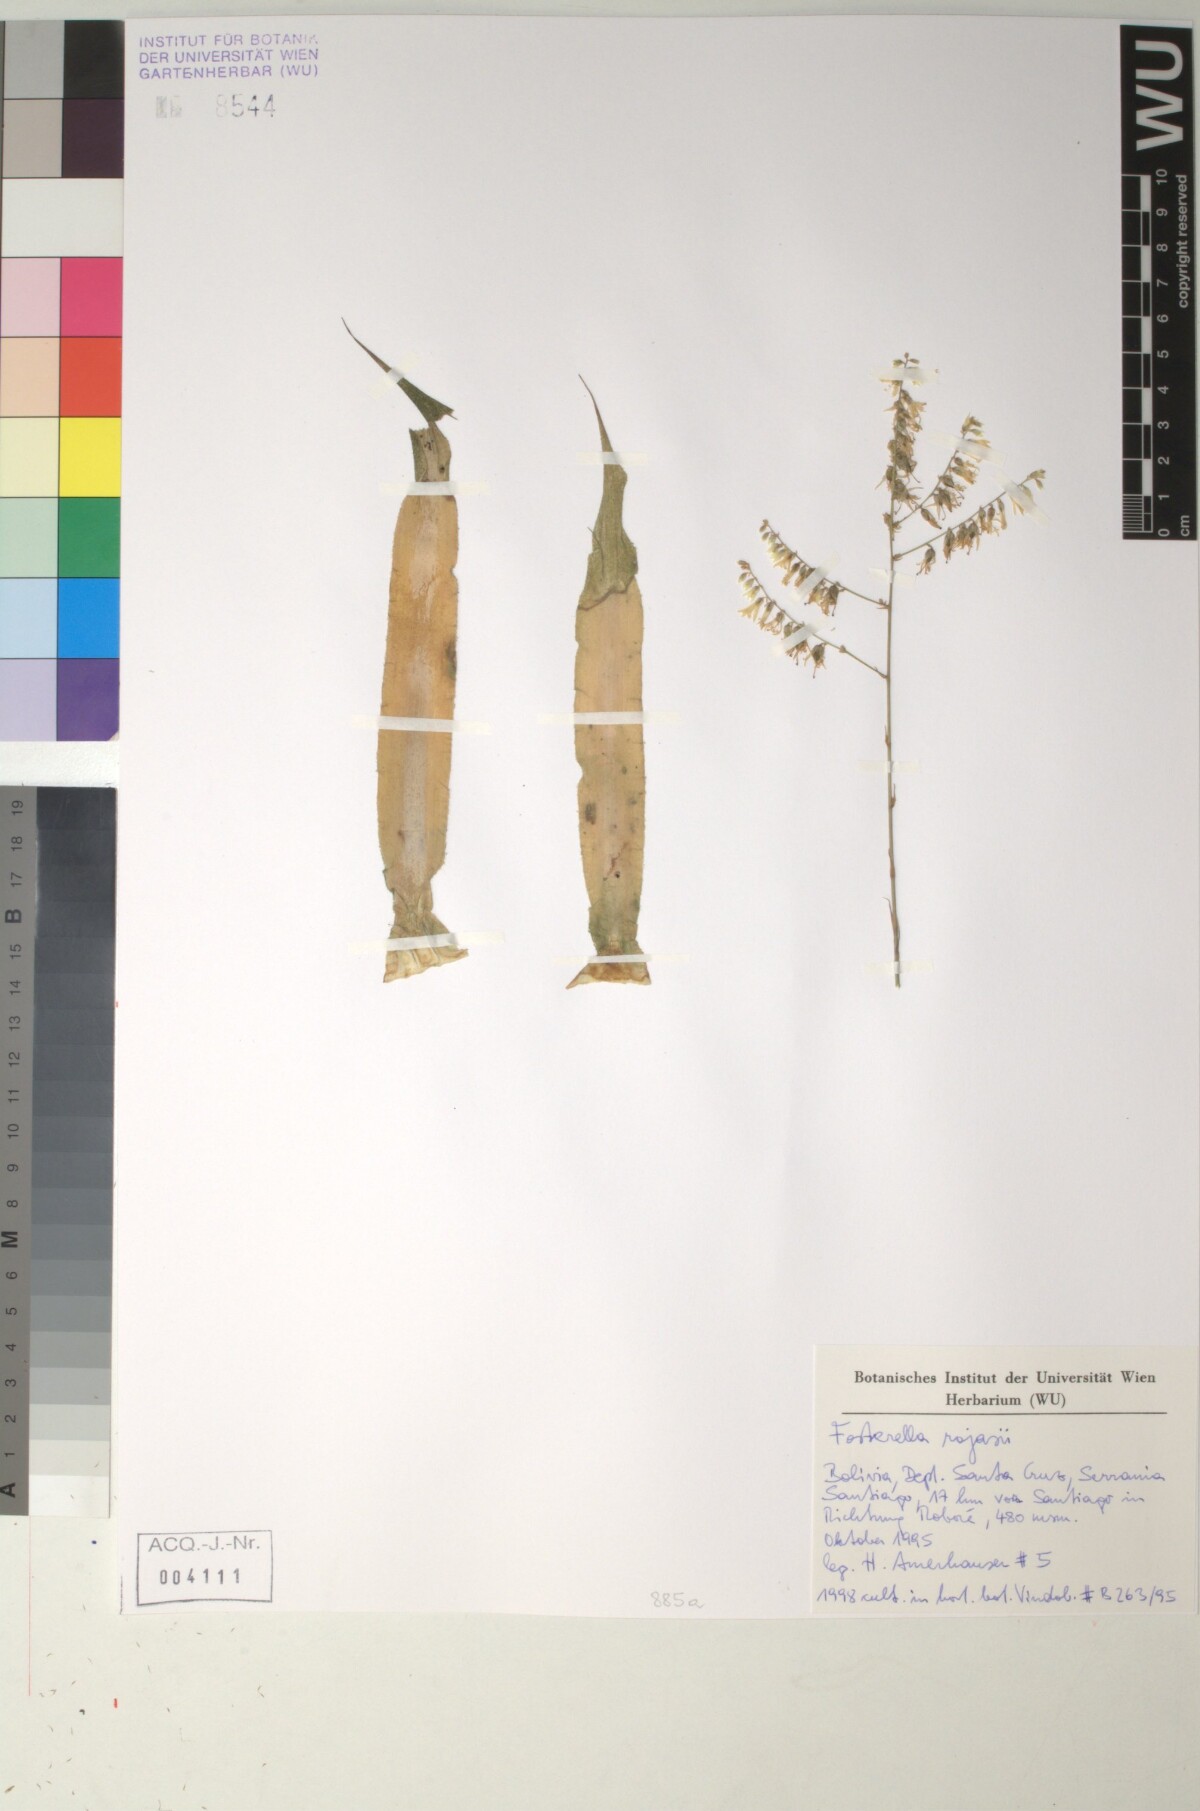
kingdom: Plantae
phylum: Tracheophyta
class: Liliopsida
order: Poales
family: Bromeliaceae
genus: Fosterella
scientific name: Fosterella yuvinkae
